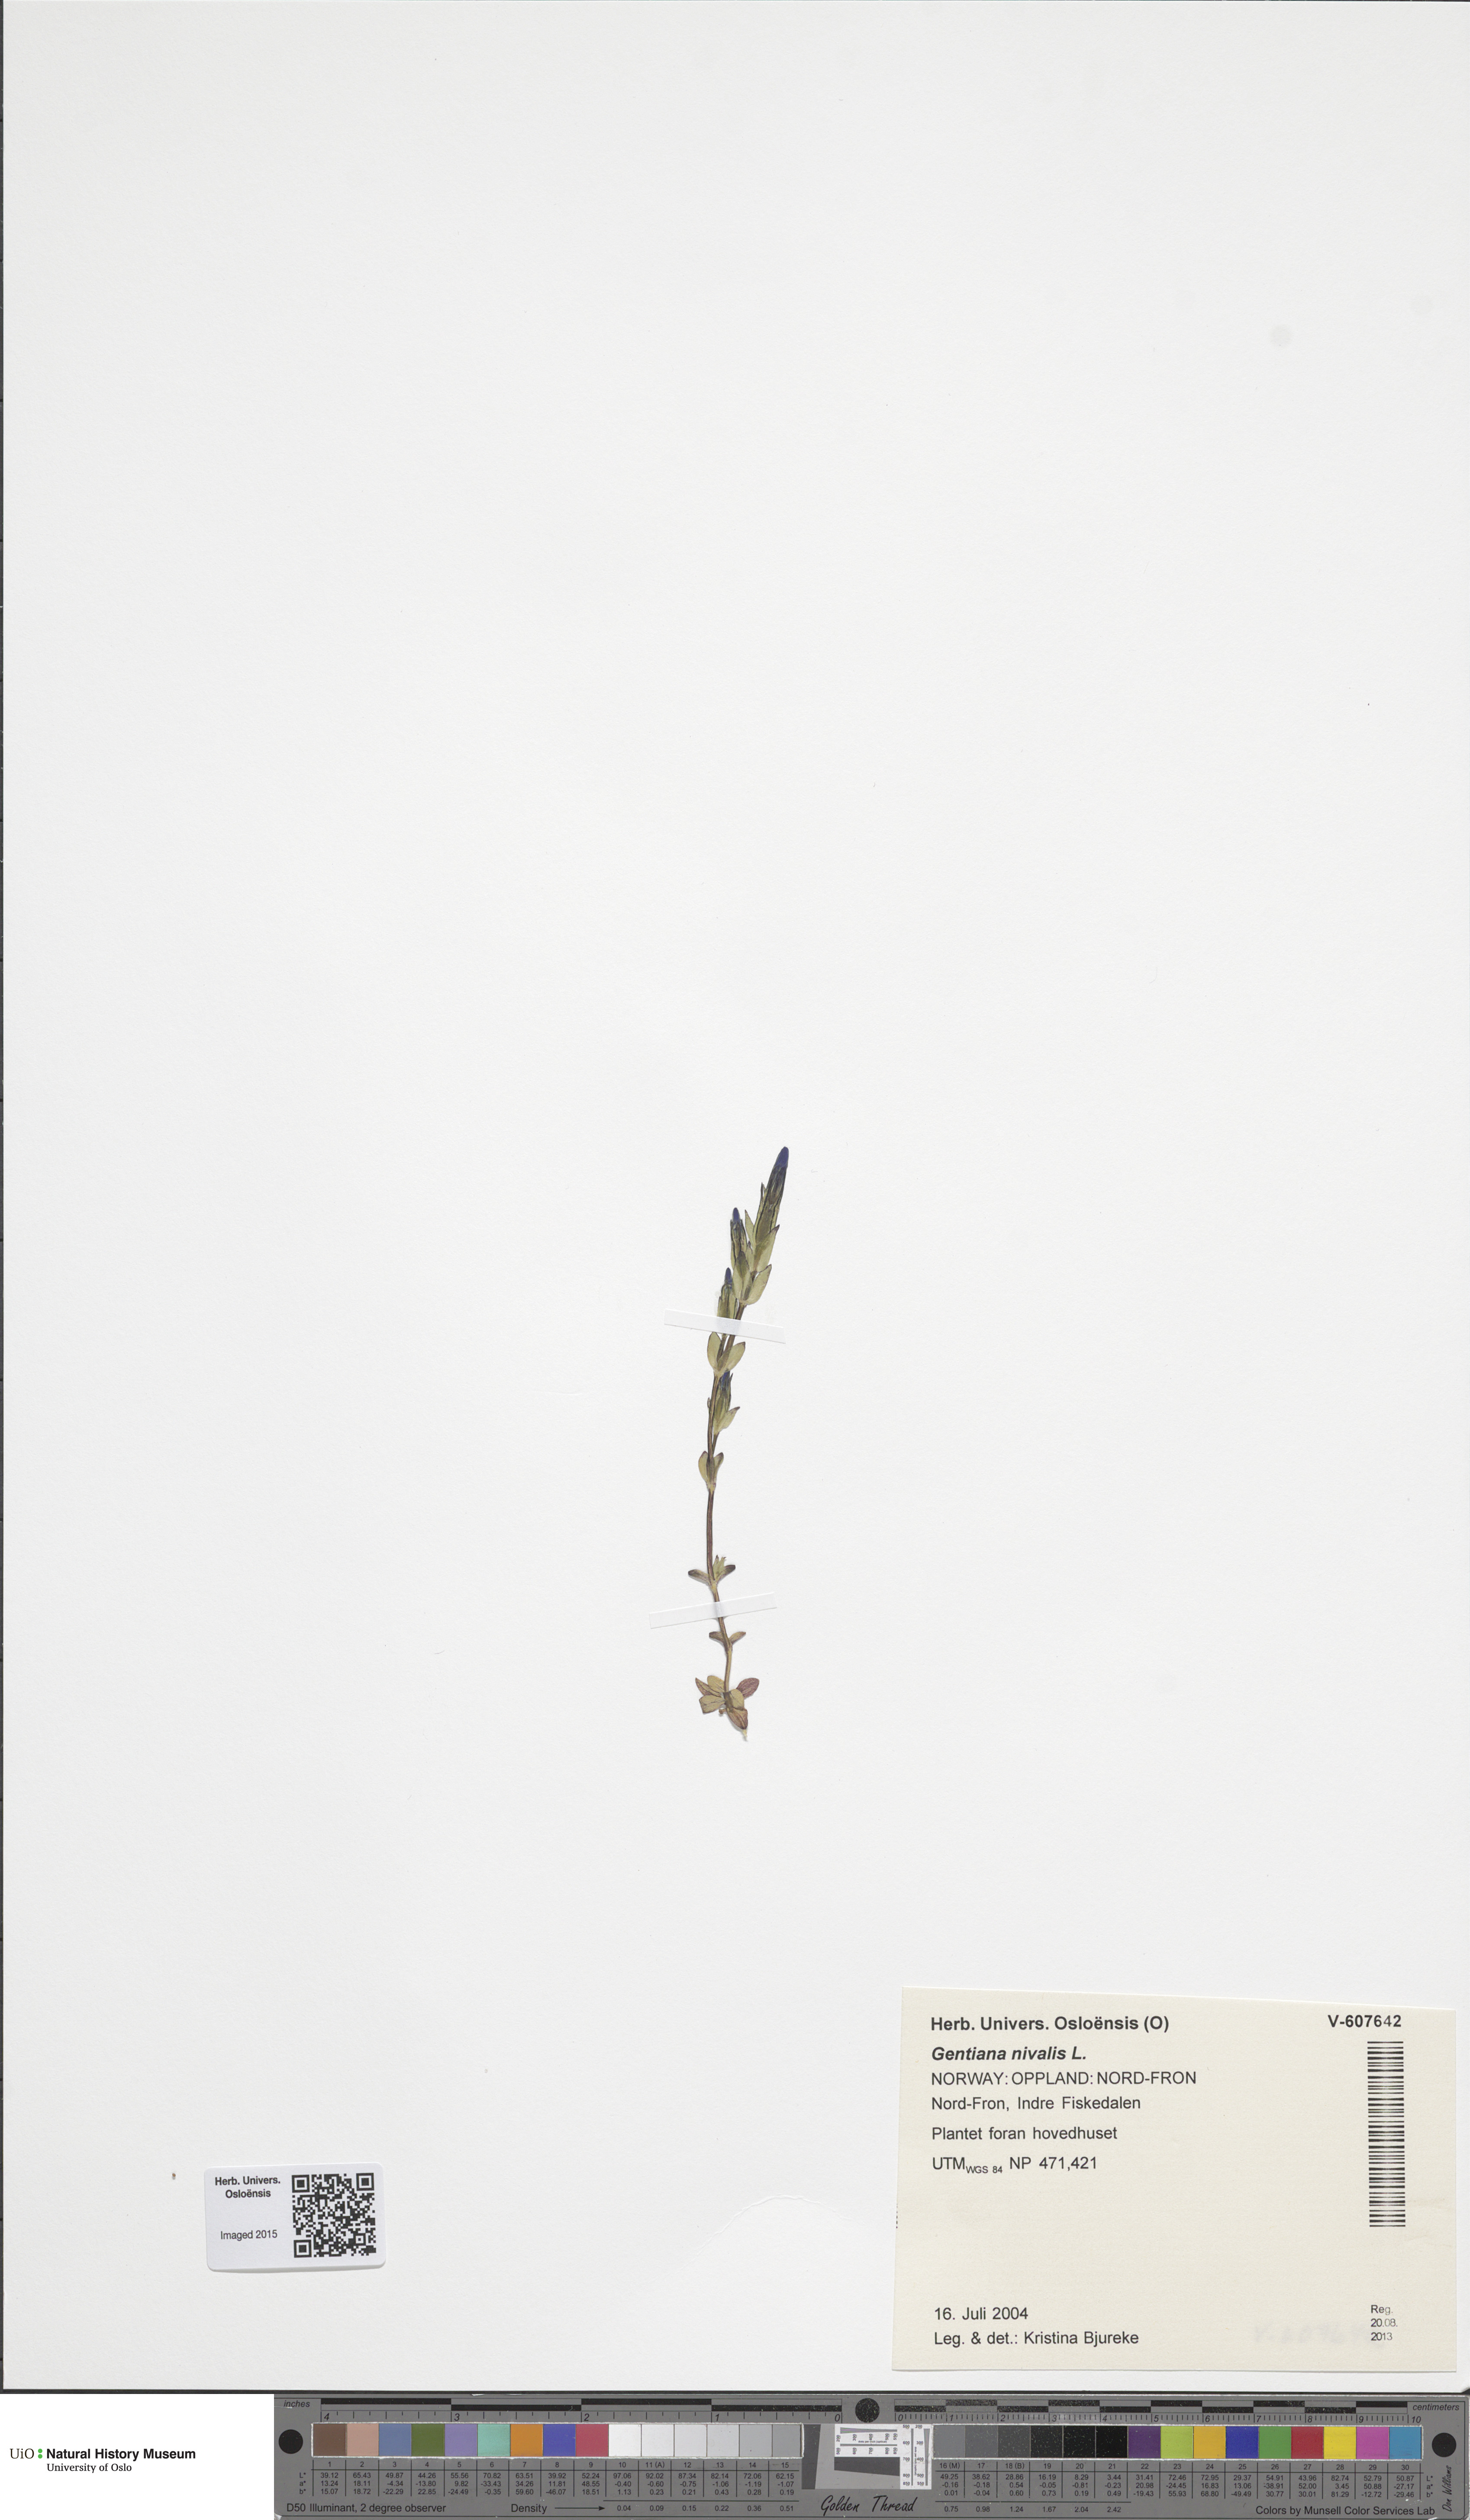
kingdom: Plantae
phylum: Tracheophyta
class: Magnoliopsida
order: Gentianales
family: Gentianaceae
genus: Gentiana
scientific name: Gentiana nivalis
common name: Alpine gentian
